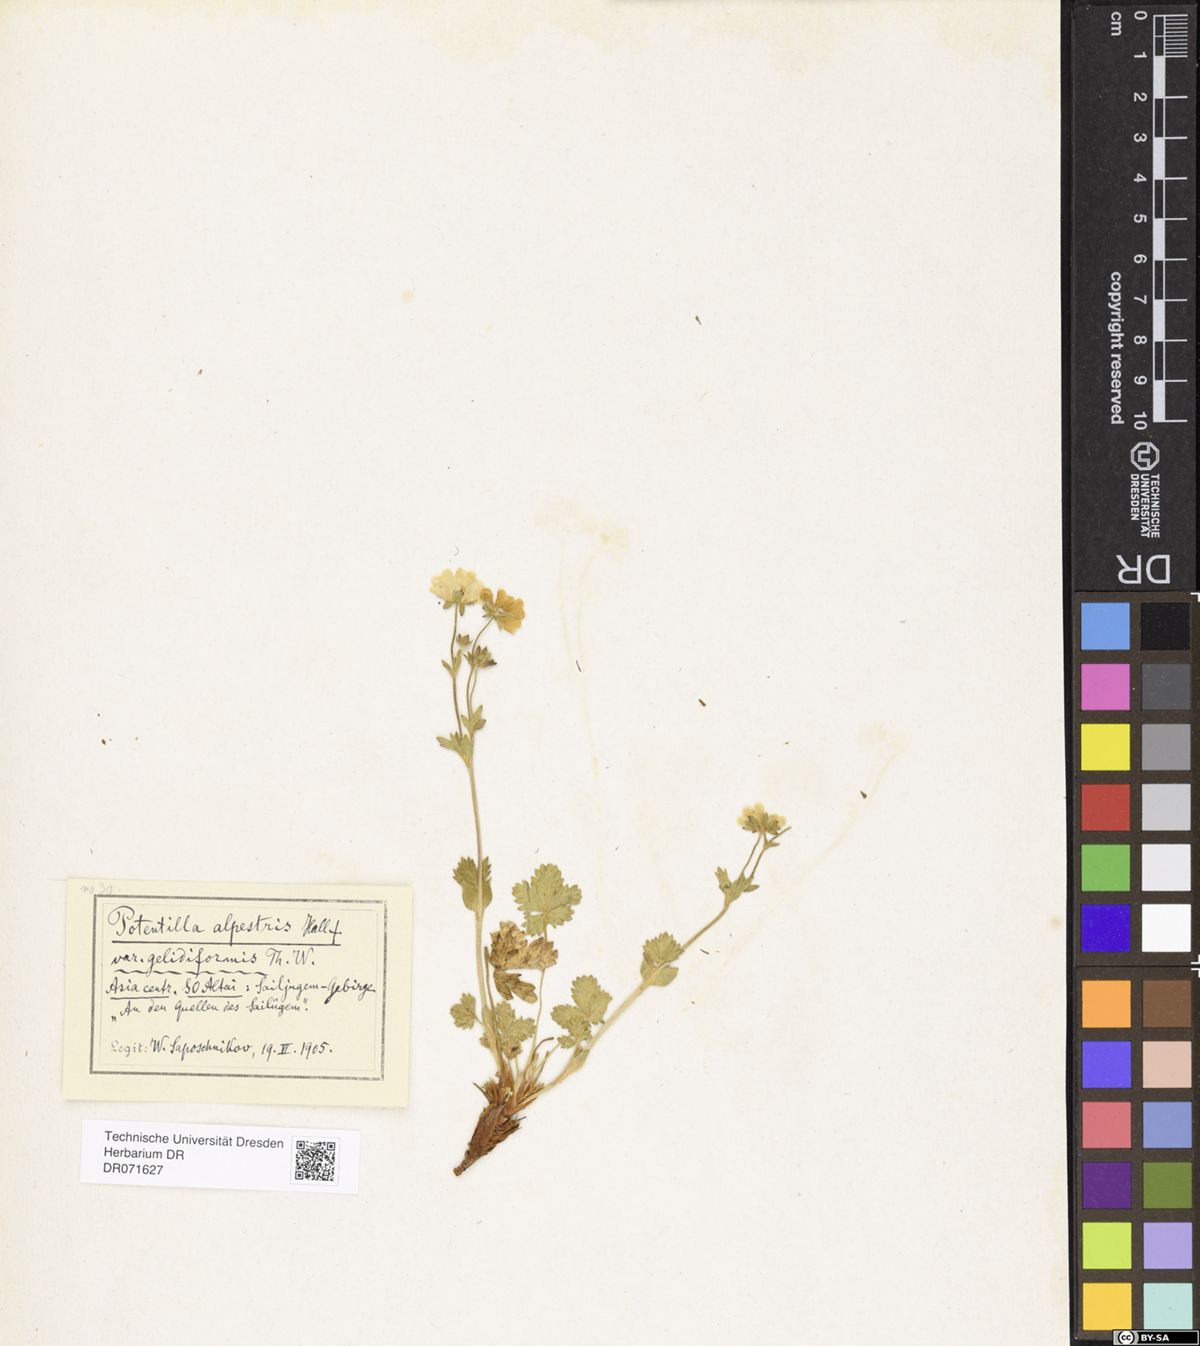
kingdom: Plantae
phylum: Tracheophyta
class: Magnoliopsida
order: Rosales
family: Rosaceae
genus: Potentilla
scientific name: Potentilla crantzii
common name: Alpine cinquefoil
